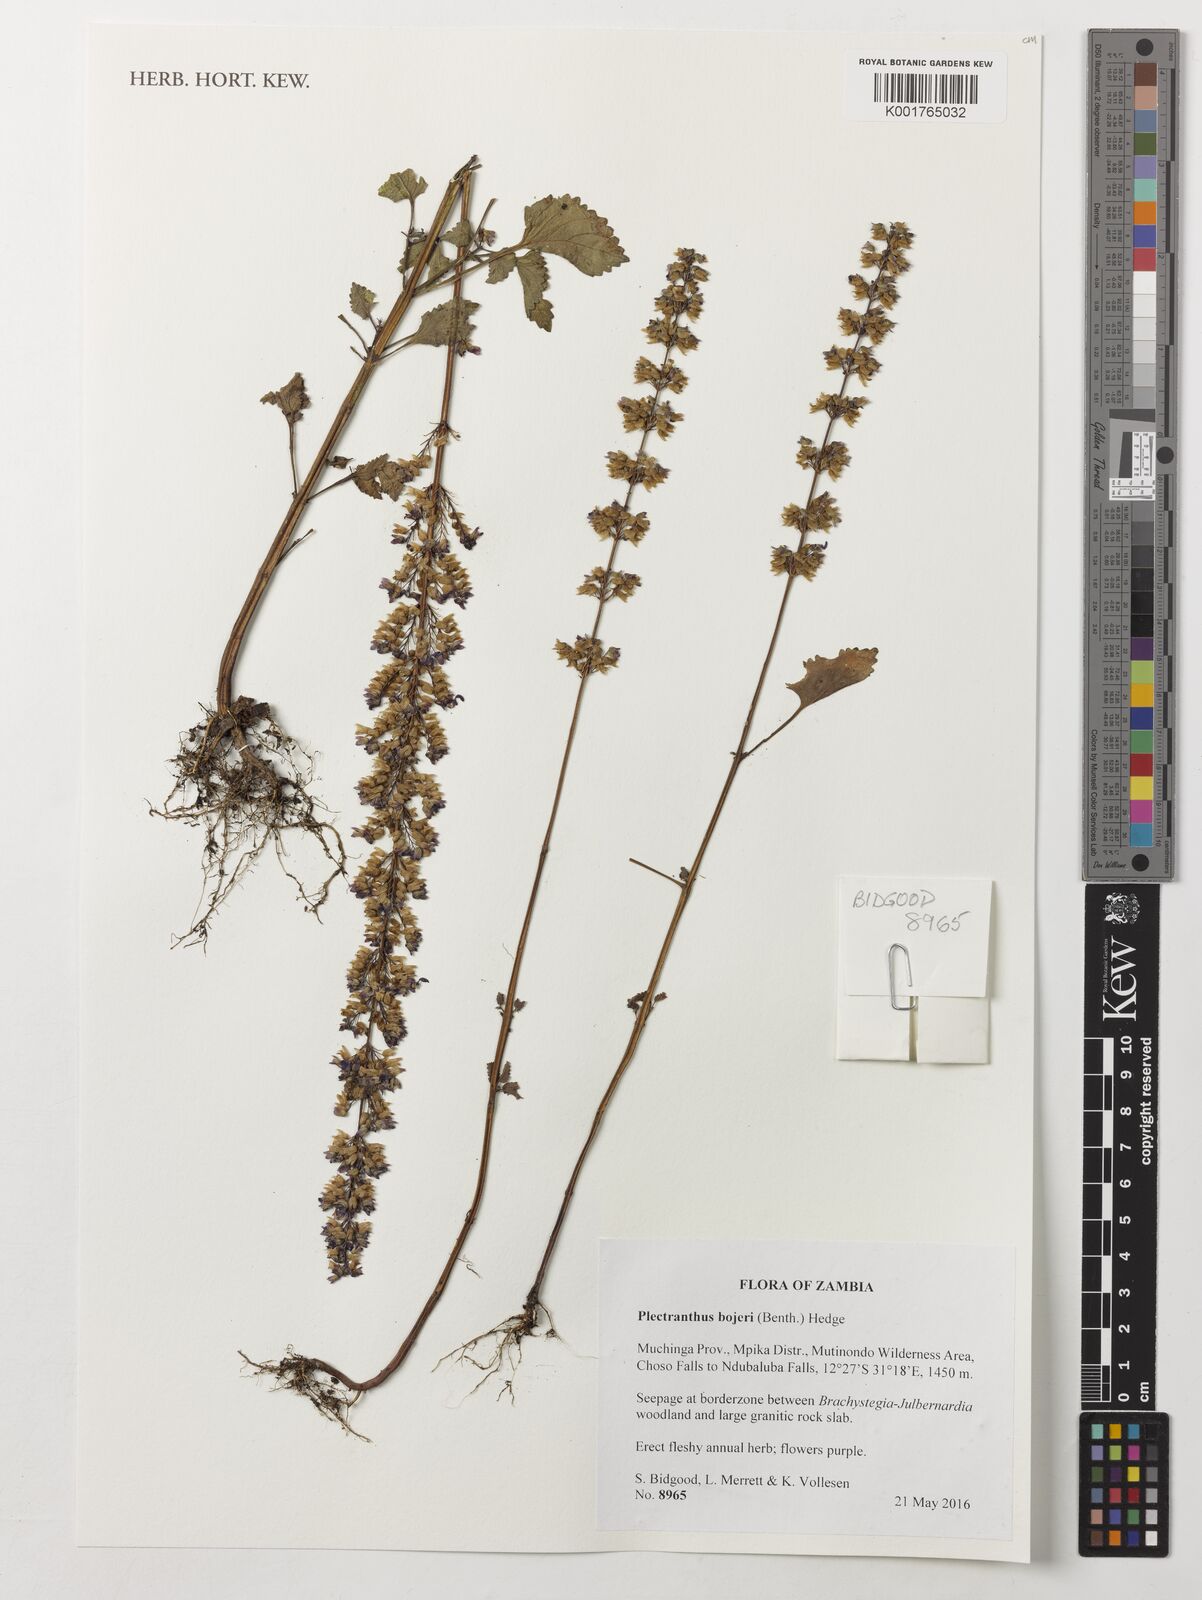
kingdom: Plantae
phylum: Tracheophyta
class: Magnoliopsida
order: Lamiales
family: Lamiaceae
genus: Coleus
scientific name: Coleus bojeri
